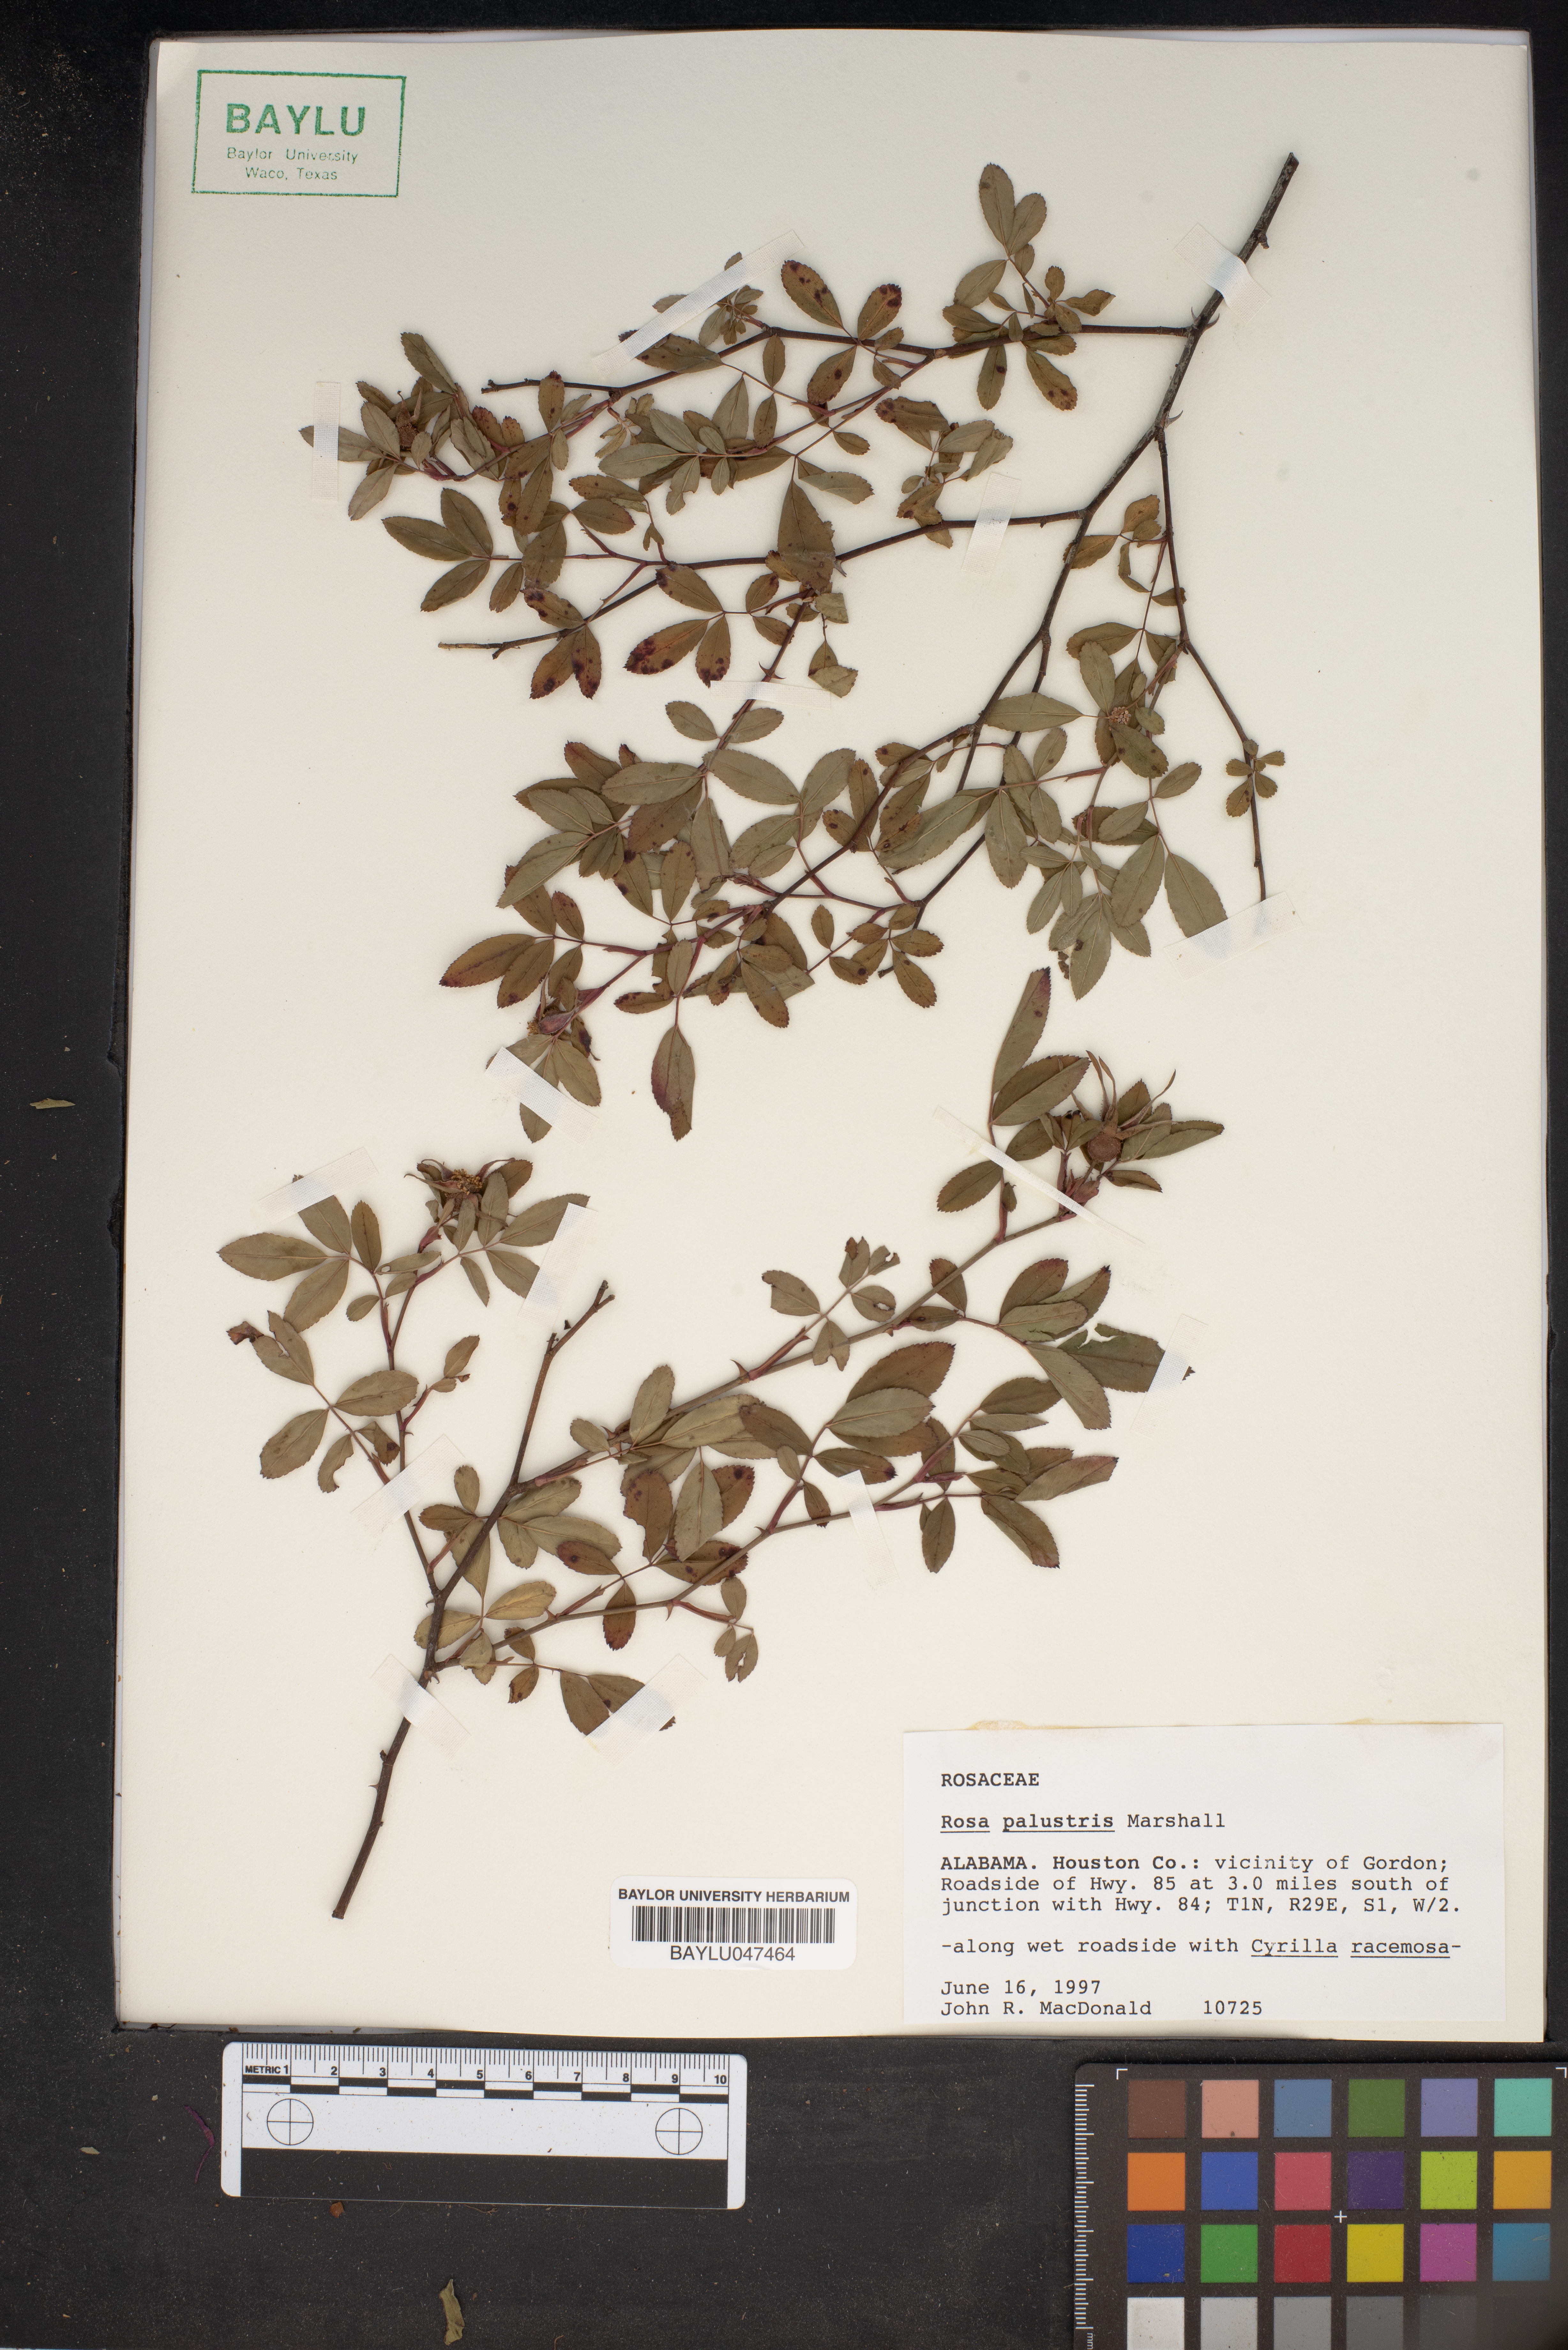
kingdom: Plantae
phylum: Tracheophyta
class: Magnoliopsida
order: Rosales
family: Rosaceae
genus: Rosa
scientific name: Rosa palustris
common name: Swamp rose
